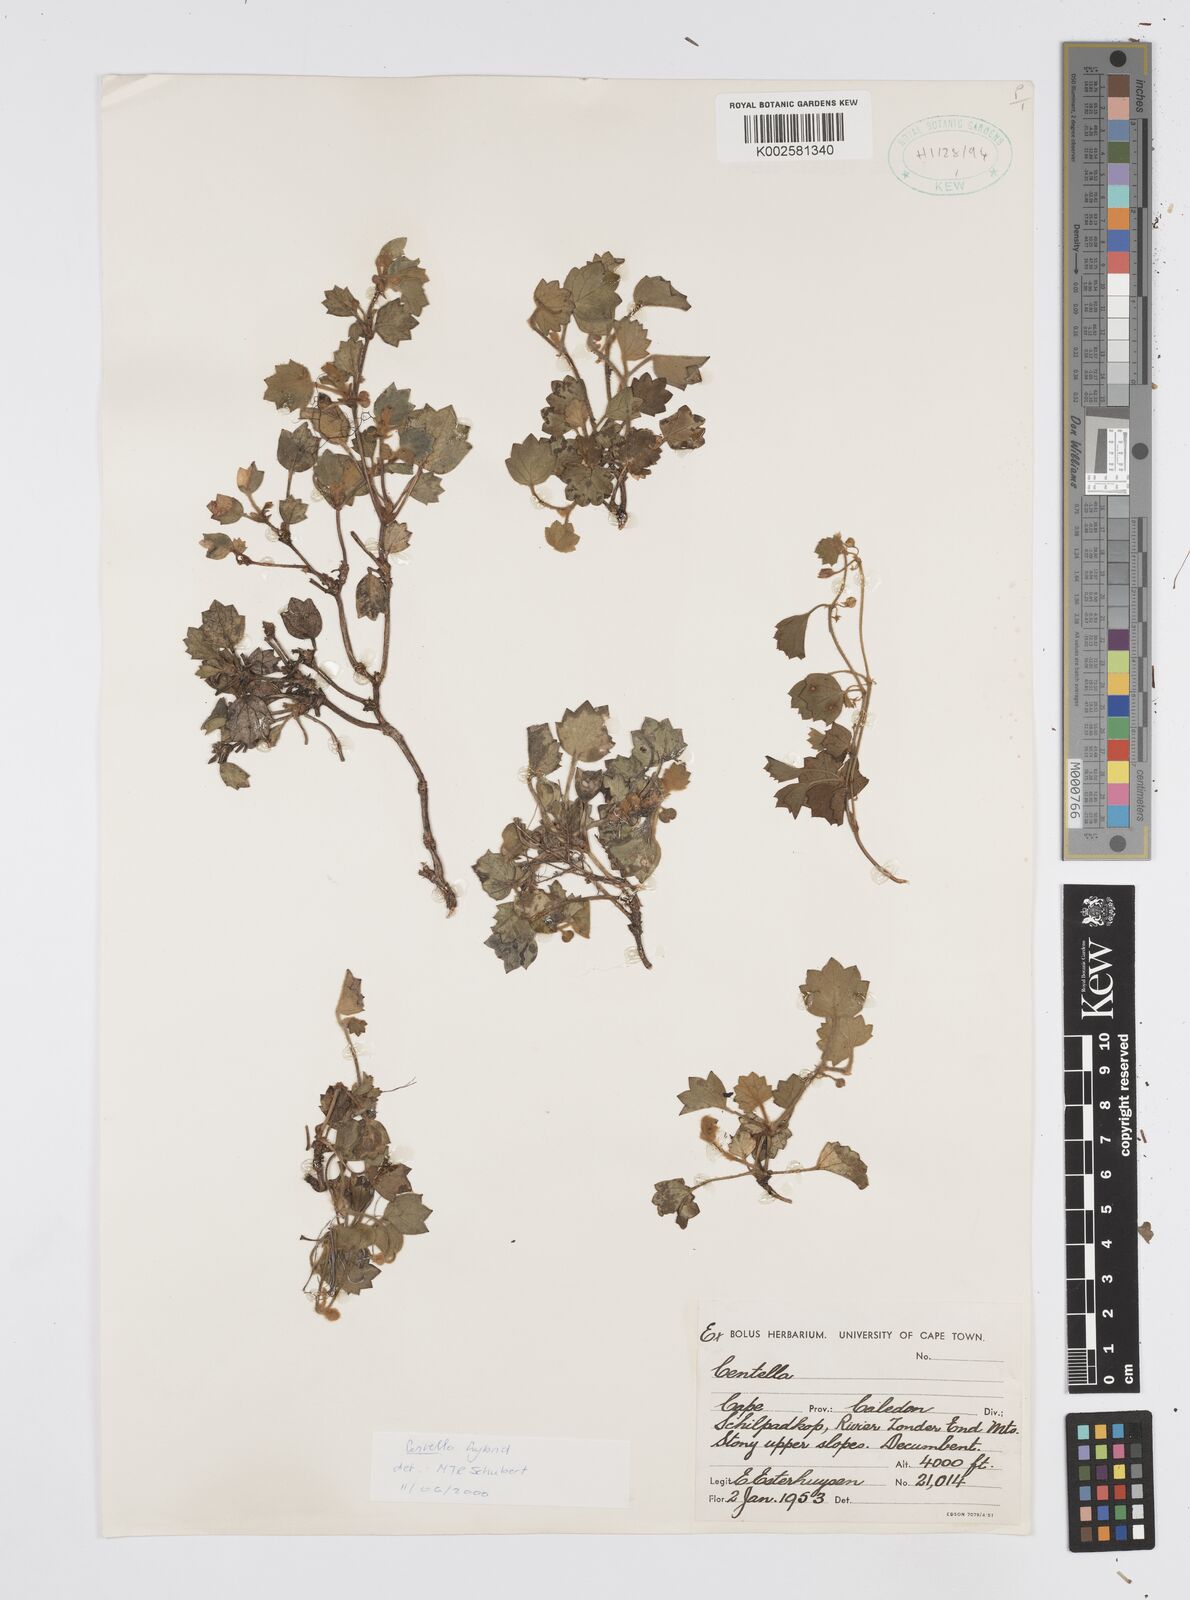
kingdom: Plantae
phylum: Tracheophyta
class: Magnoliopsida
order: Apiales
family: Apiaceae
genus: Centella
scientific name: Centella
